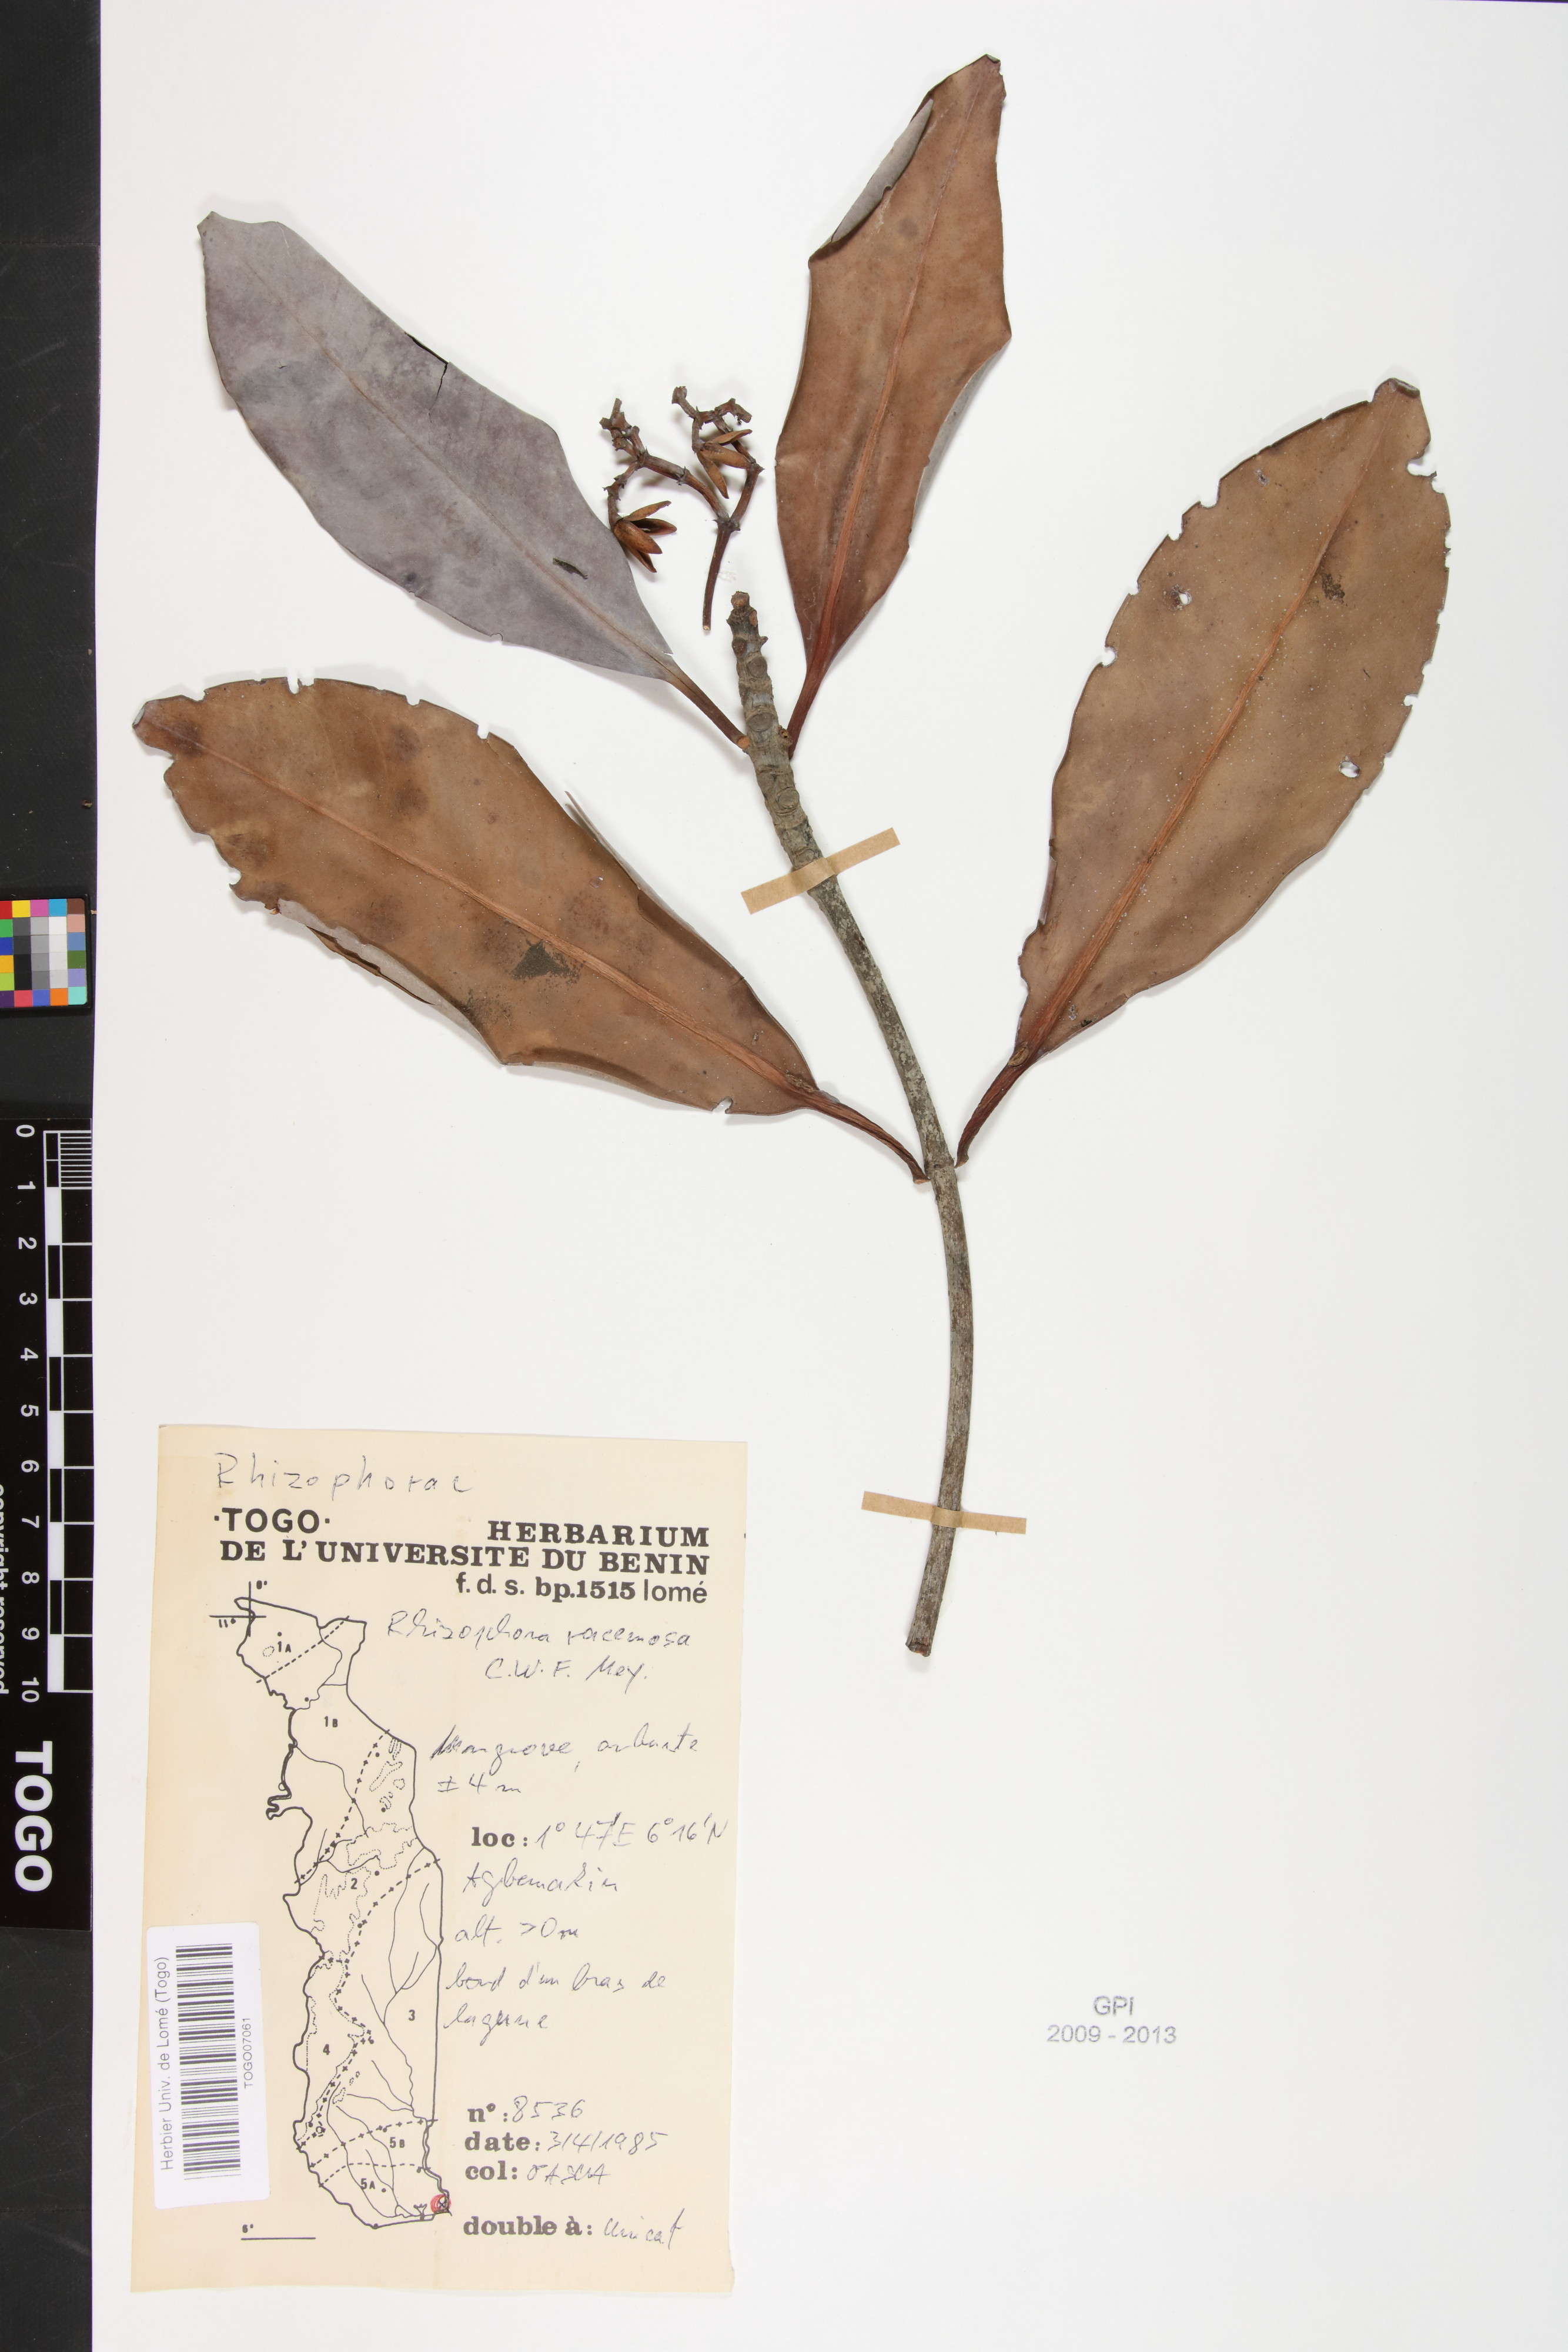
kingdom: Plantae
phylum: Tracheophyta
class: Magnoliopsida
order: Malpighiales
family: Rhizophoraceae
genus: Rhizophora
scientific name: Rhizophora racemosa
